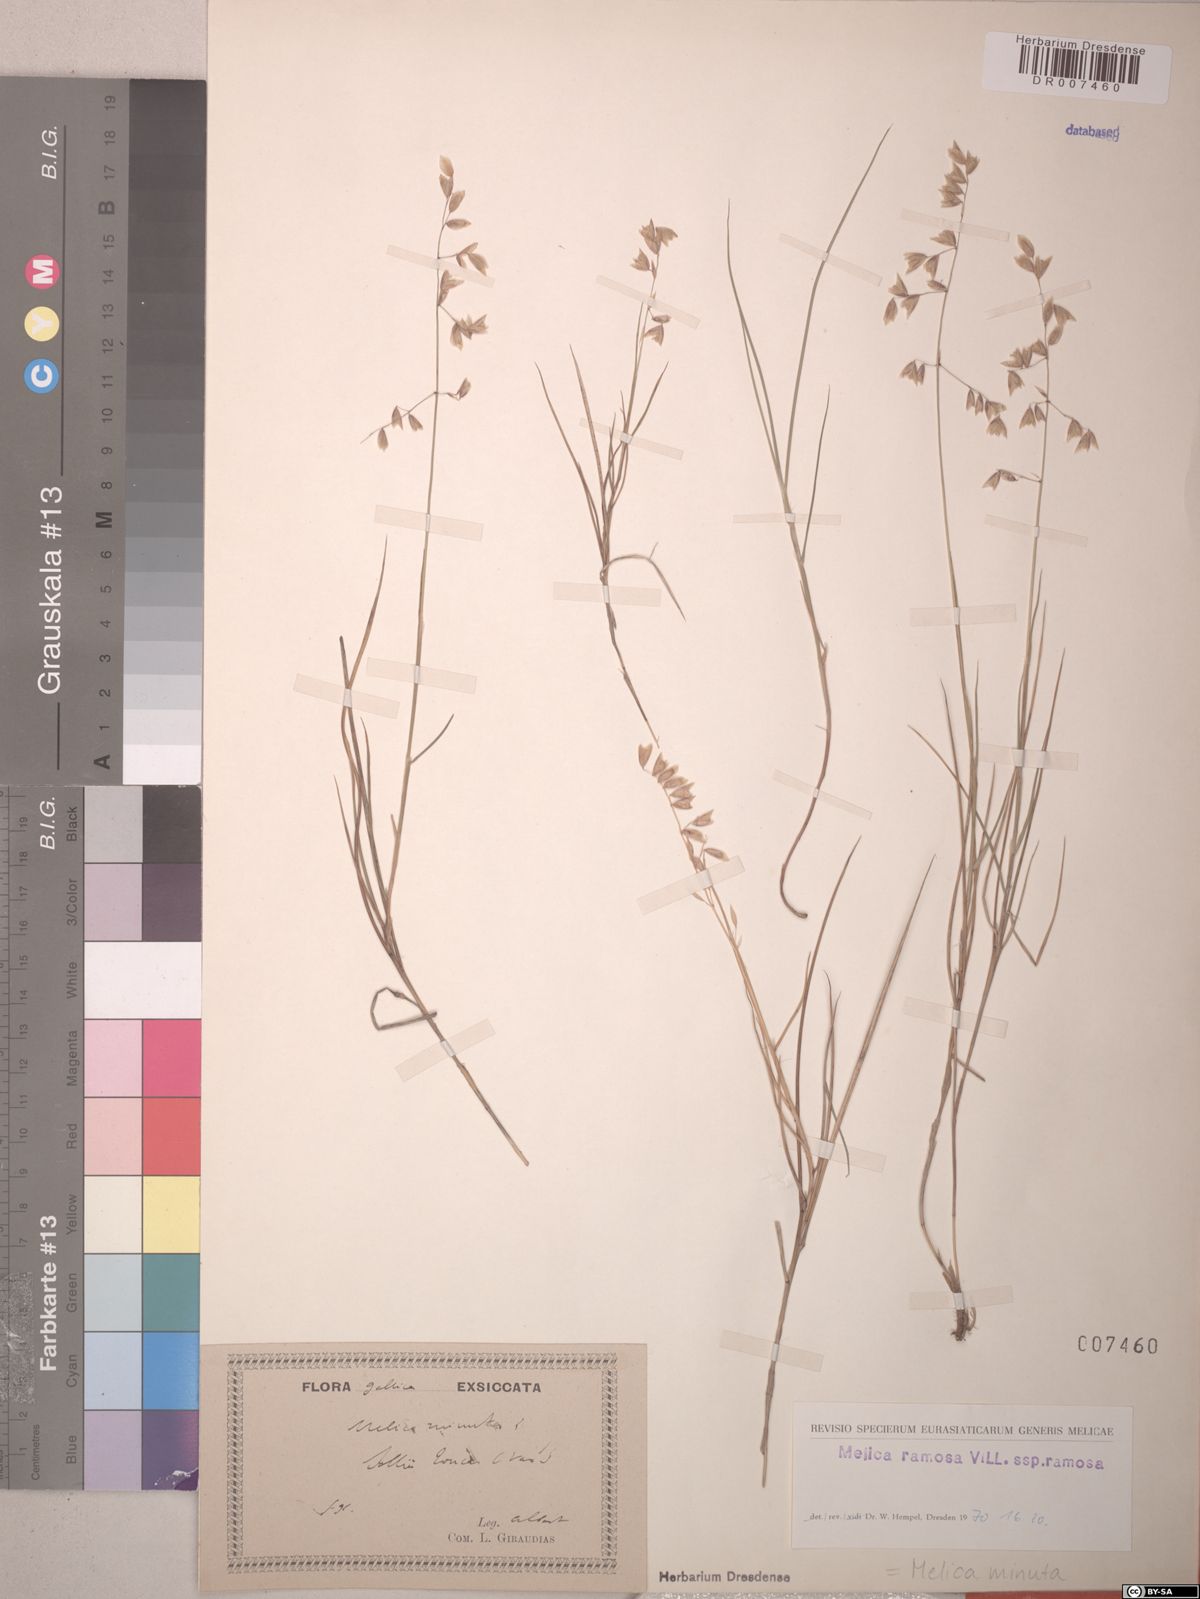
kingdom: Plantae
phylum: Tracheophyta
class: Liliopsida
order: Poales
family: Poaceae
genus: Melica
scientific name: Melica minuta
